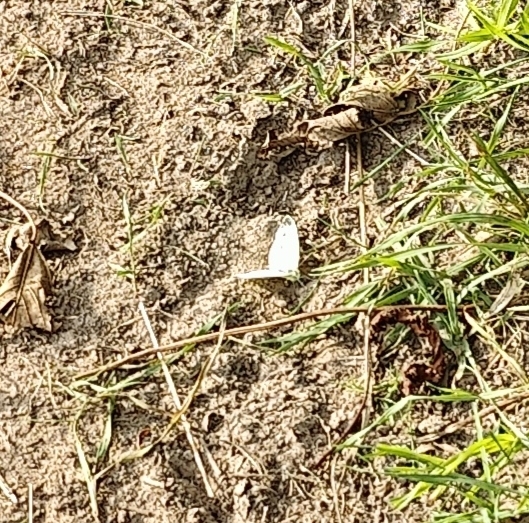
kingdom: Animalia
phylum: Arthropoda
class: Insecta
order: Lepidoptera
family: Pieridae
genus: Pieris
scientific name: Pieris napi
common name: Grønåret kålsommerfugl
